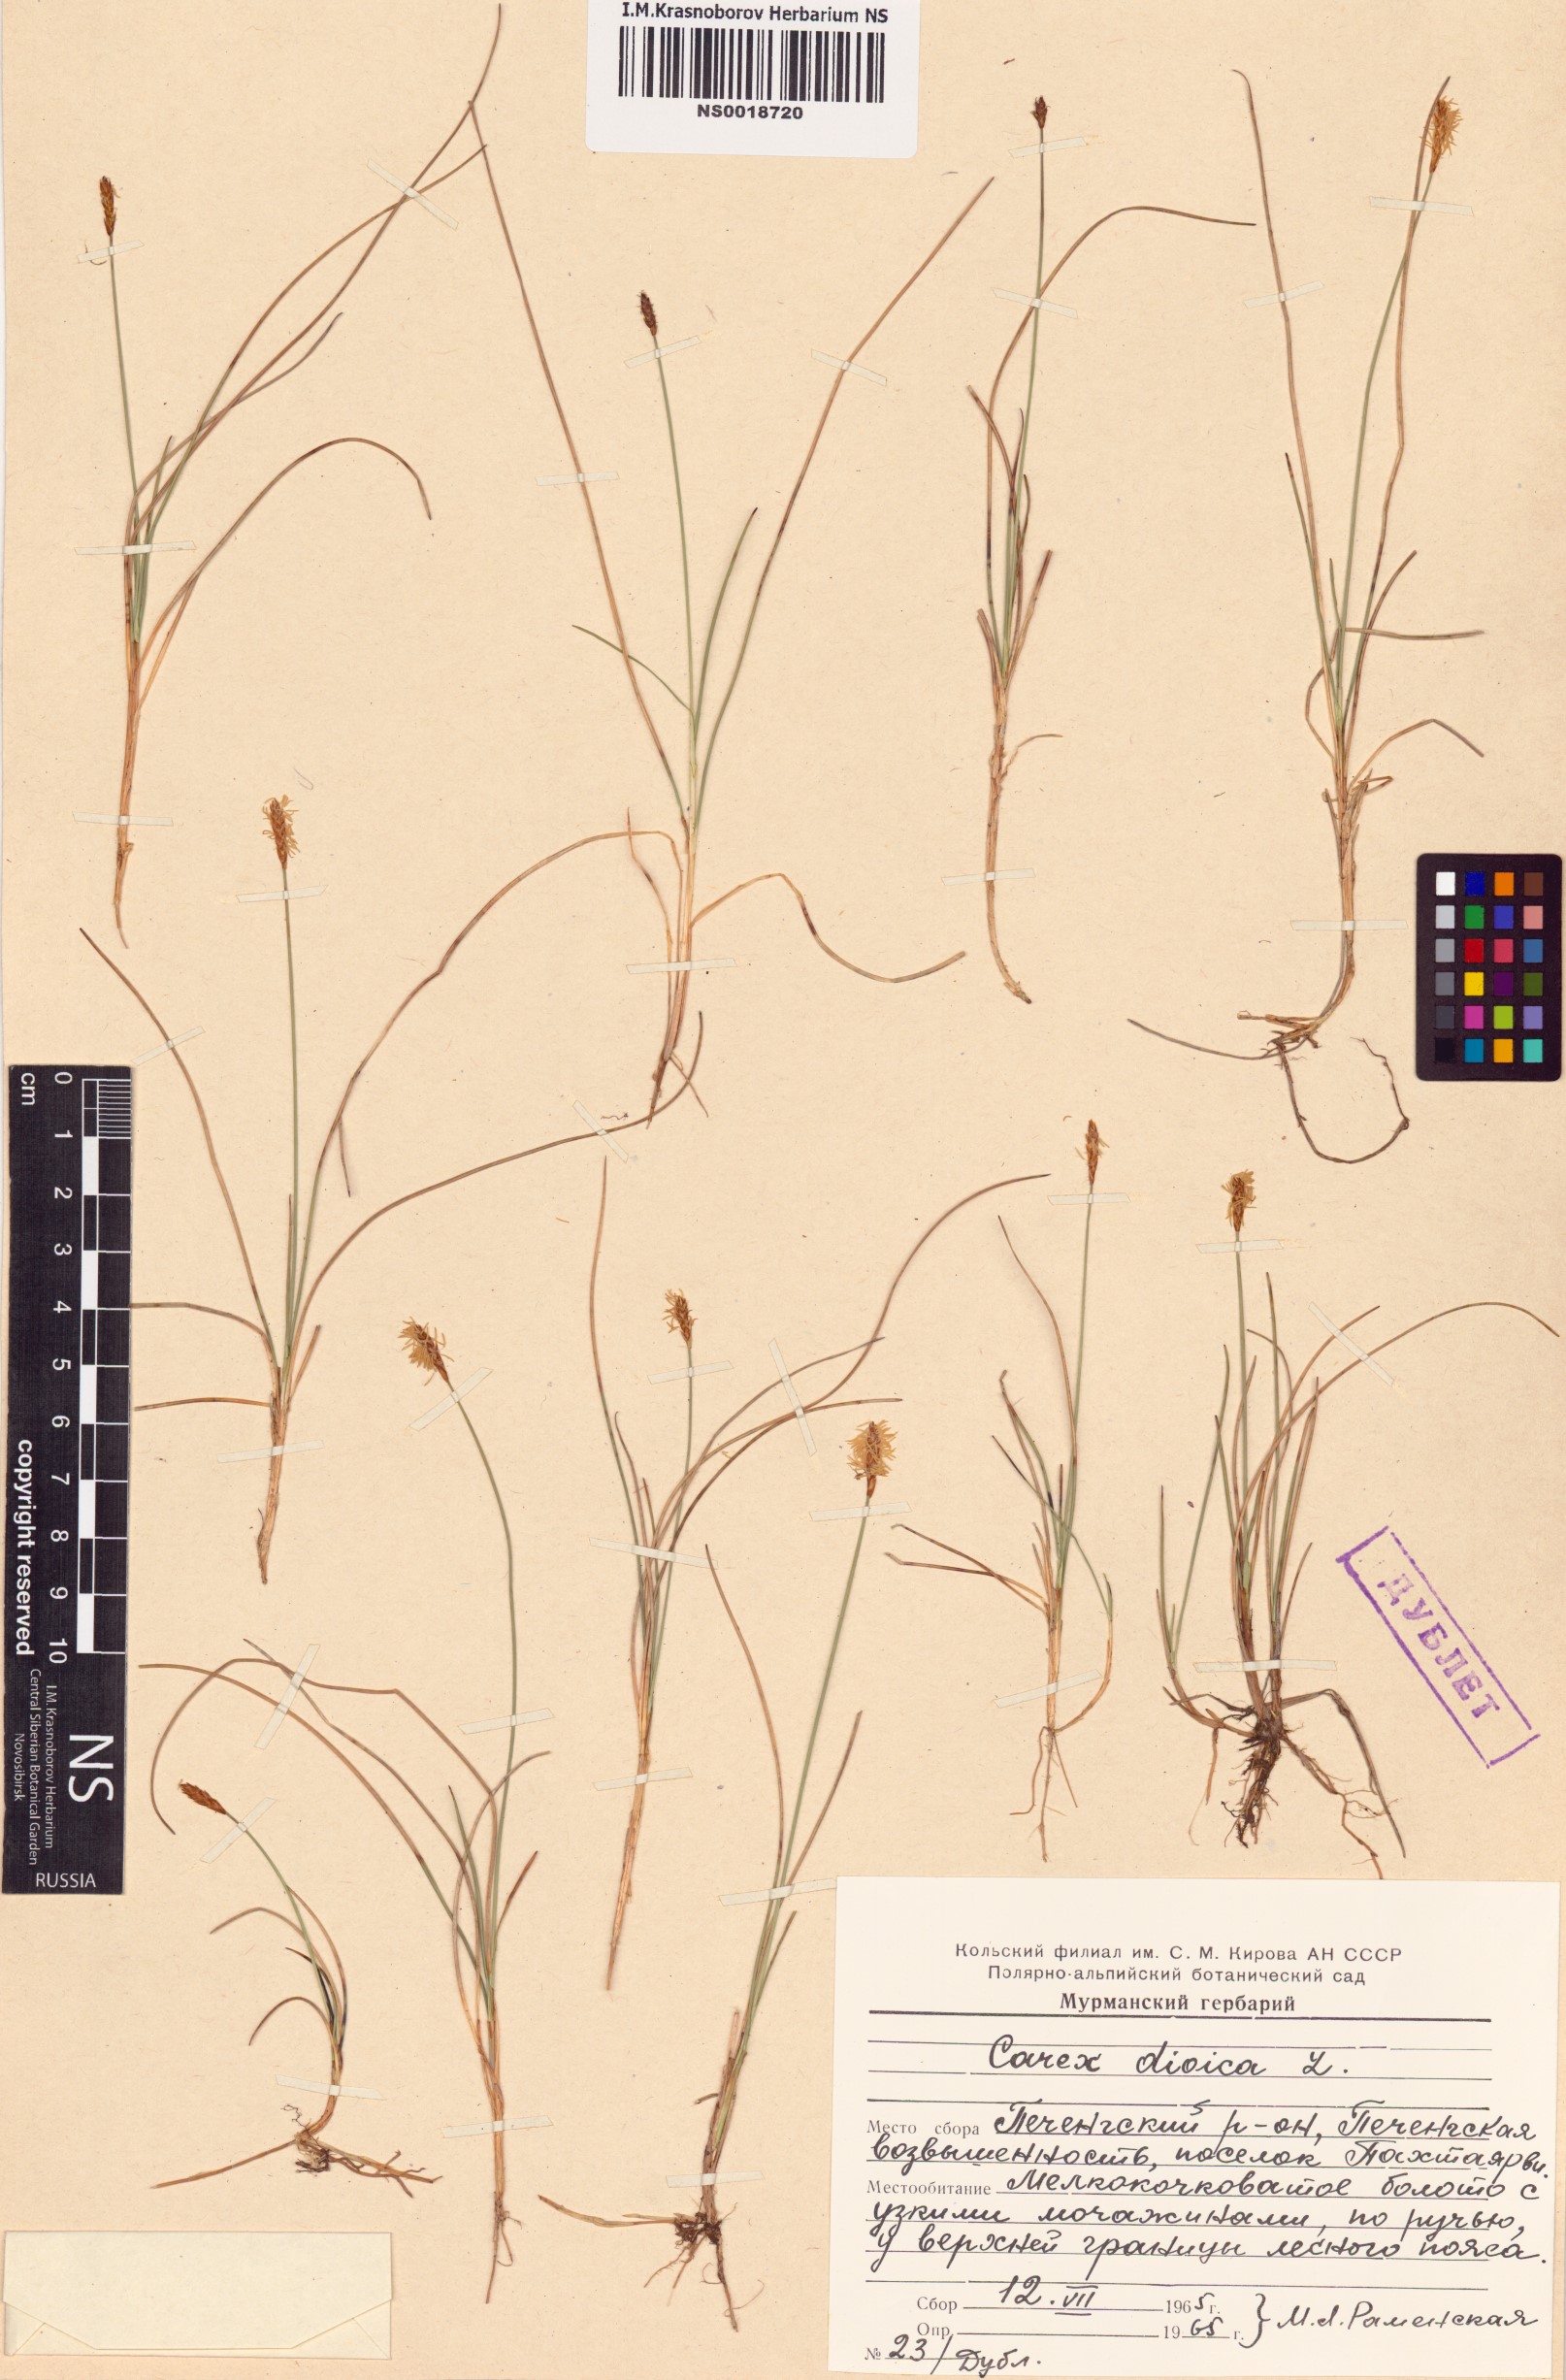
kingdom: Plantae
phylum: Tracheophyta
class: Liliopsida
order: Poales
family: Cyperaceae
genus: Carex
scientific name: Carex dioica
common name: Dioecious sedge
